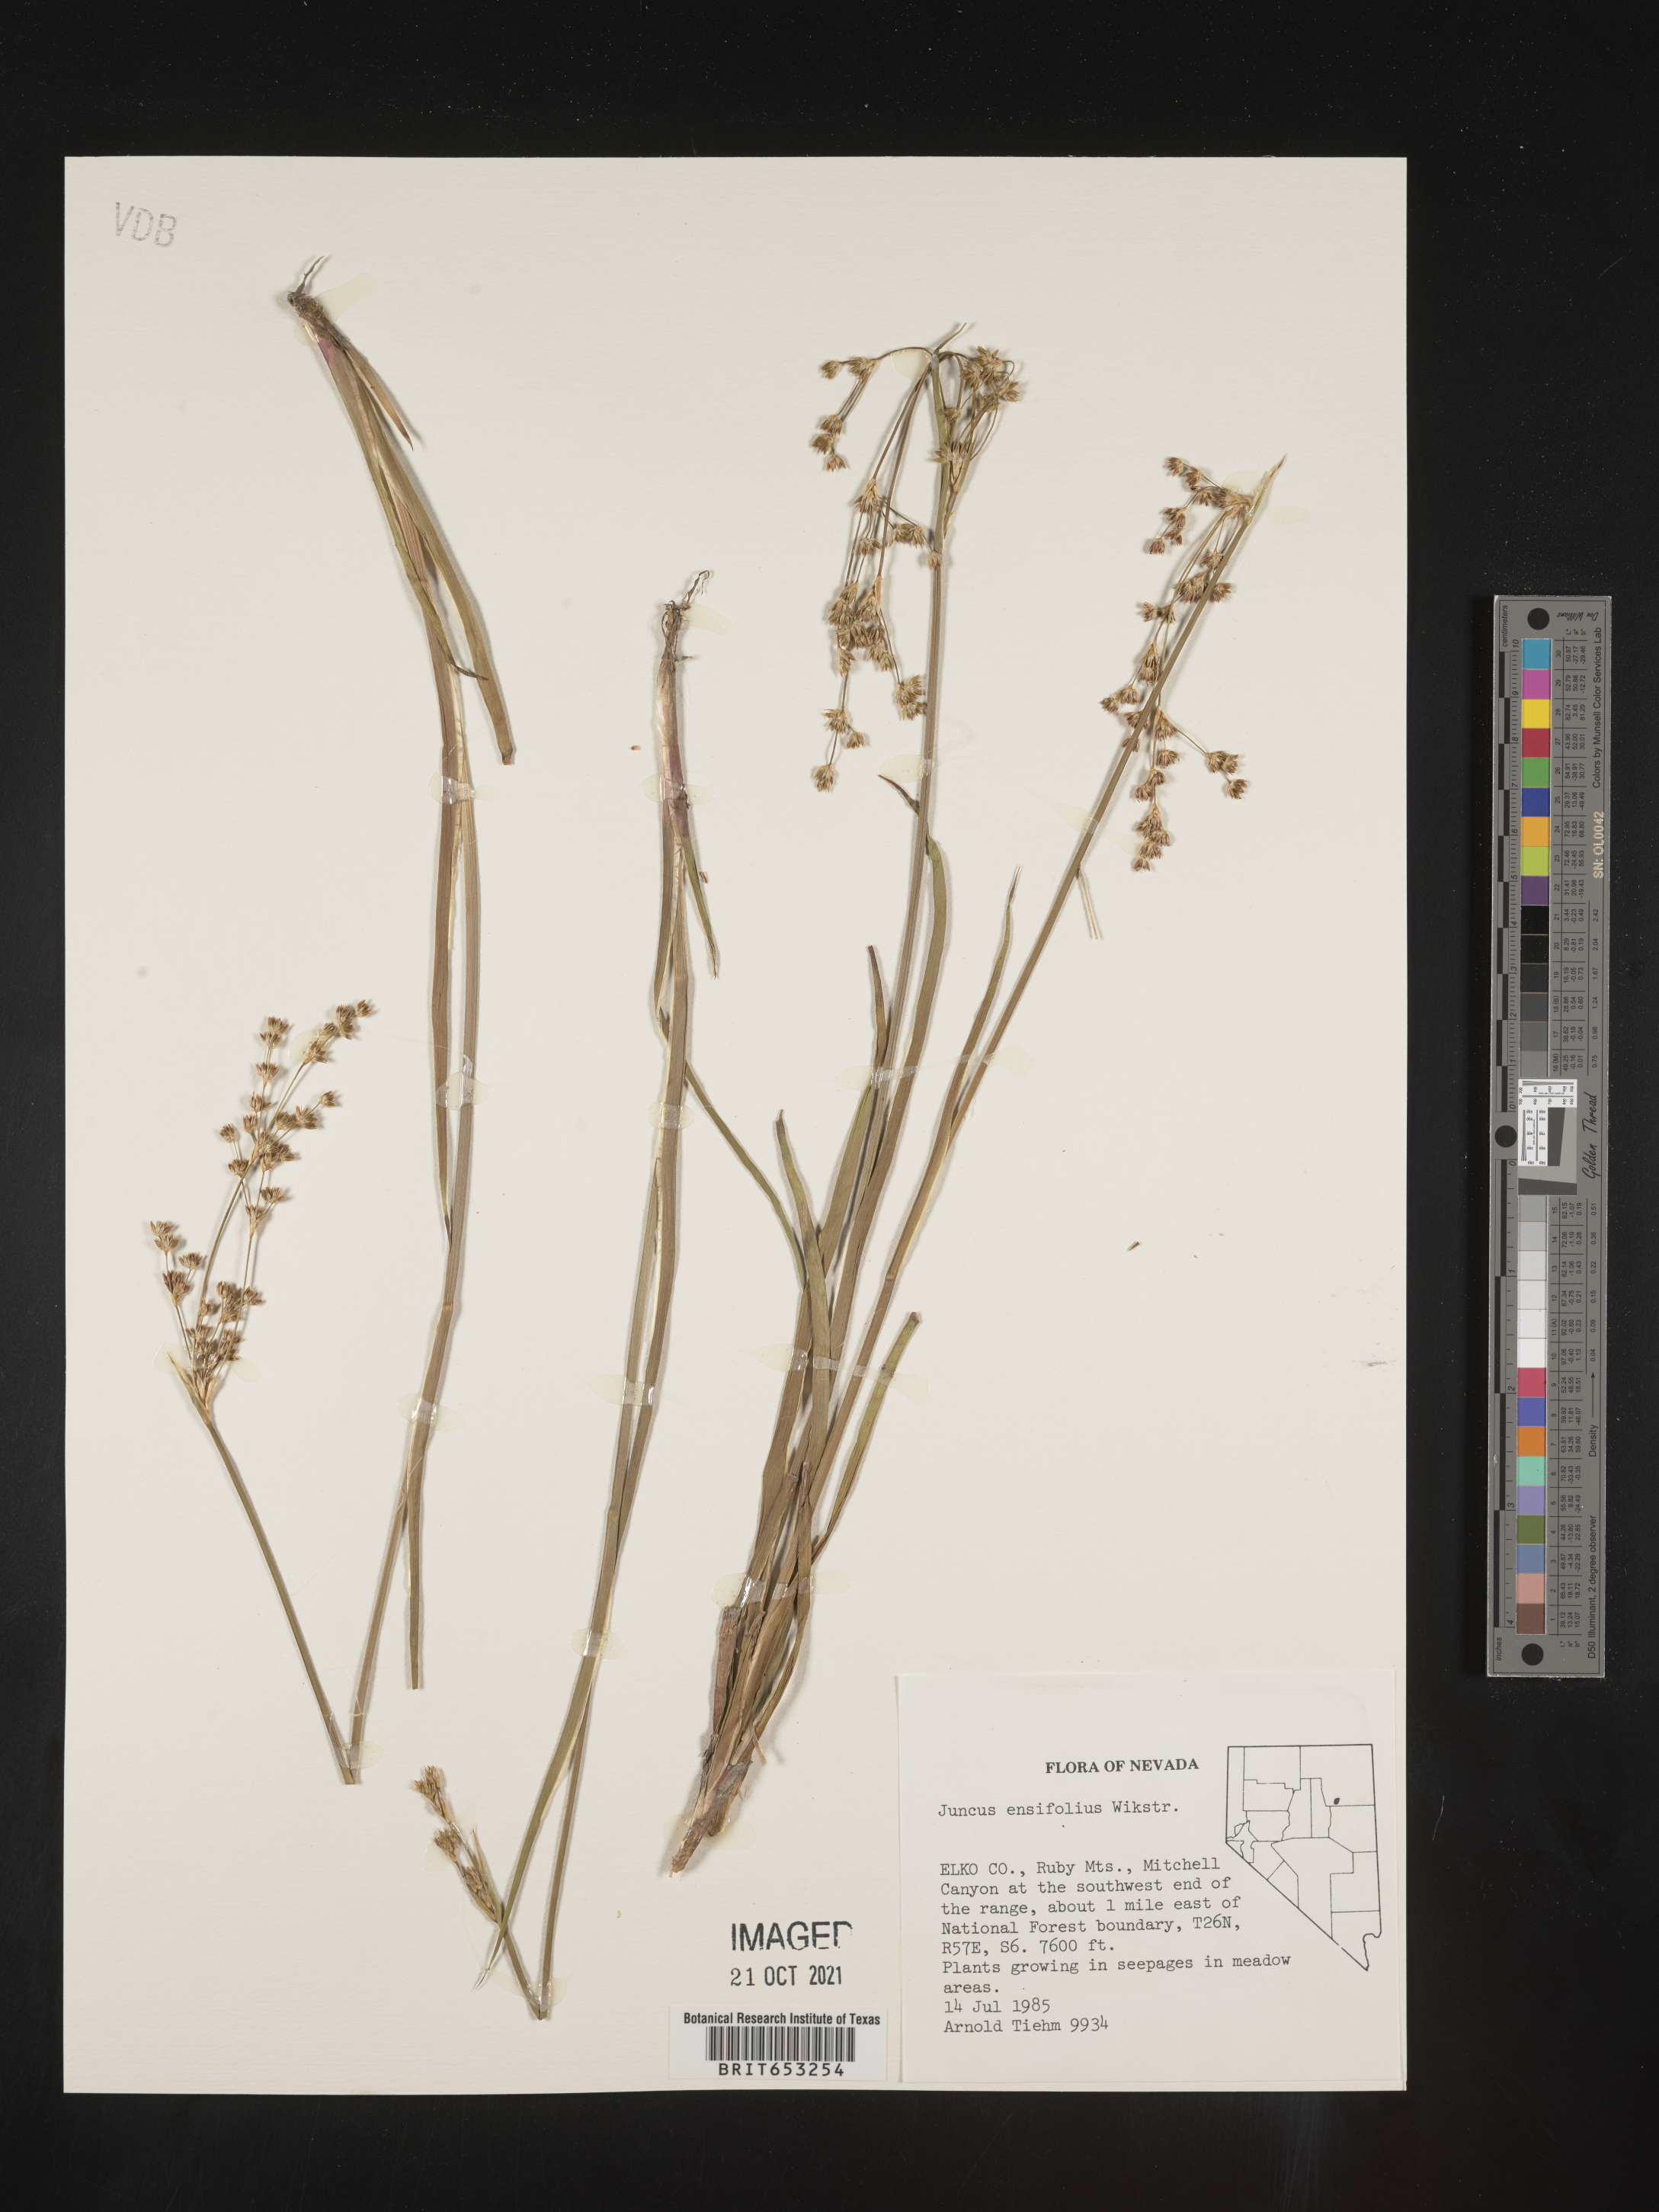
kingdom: Plantae
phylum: Tracheophyta
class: Liliopsida
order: Poales
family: Juncaceae
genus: Juncus
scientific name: Juncus ensifolius
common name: Sword-leaved rush
